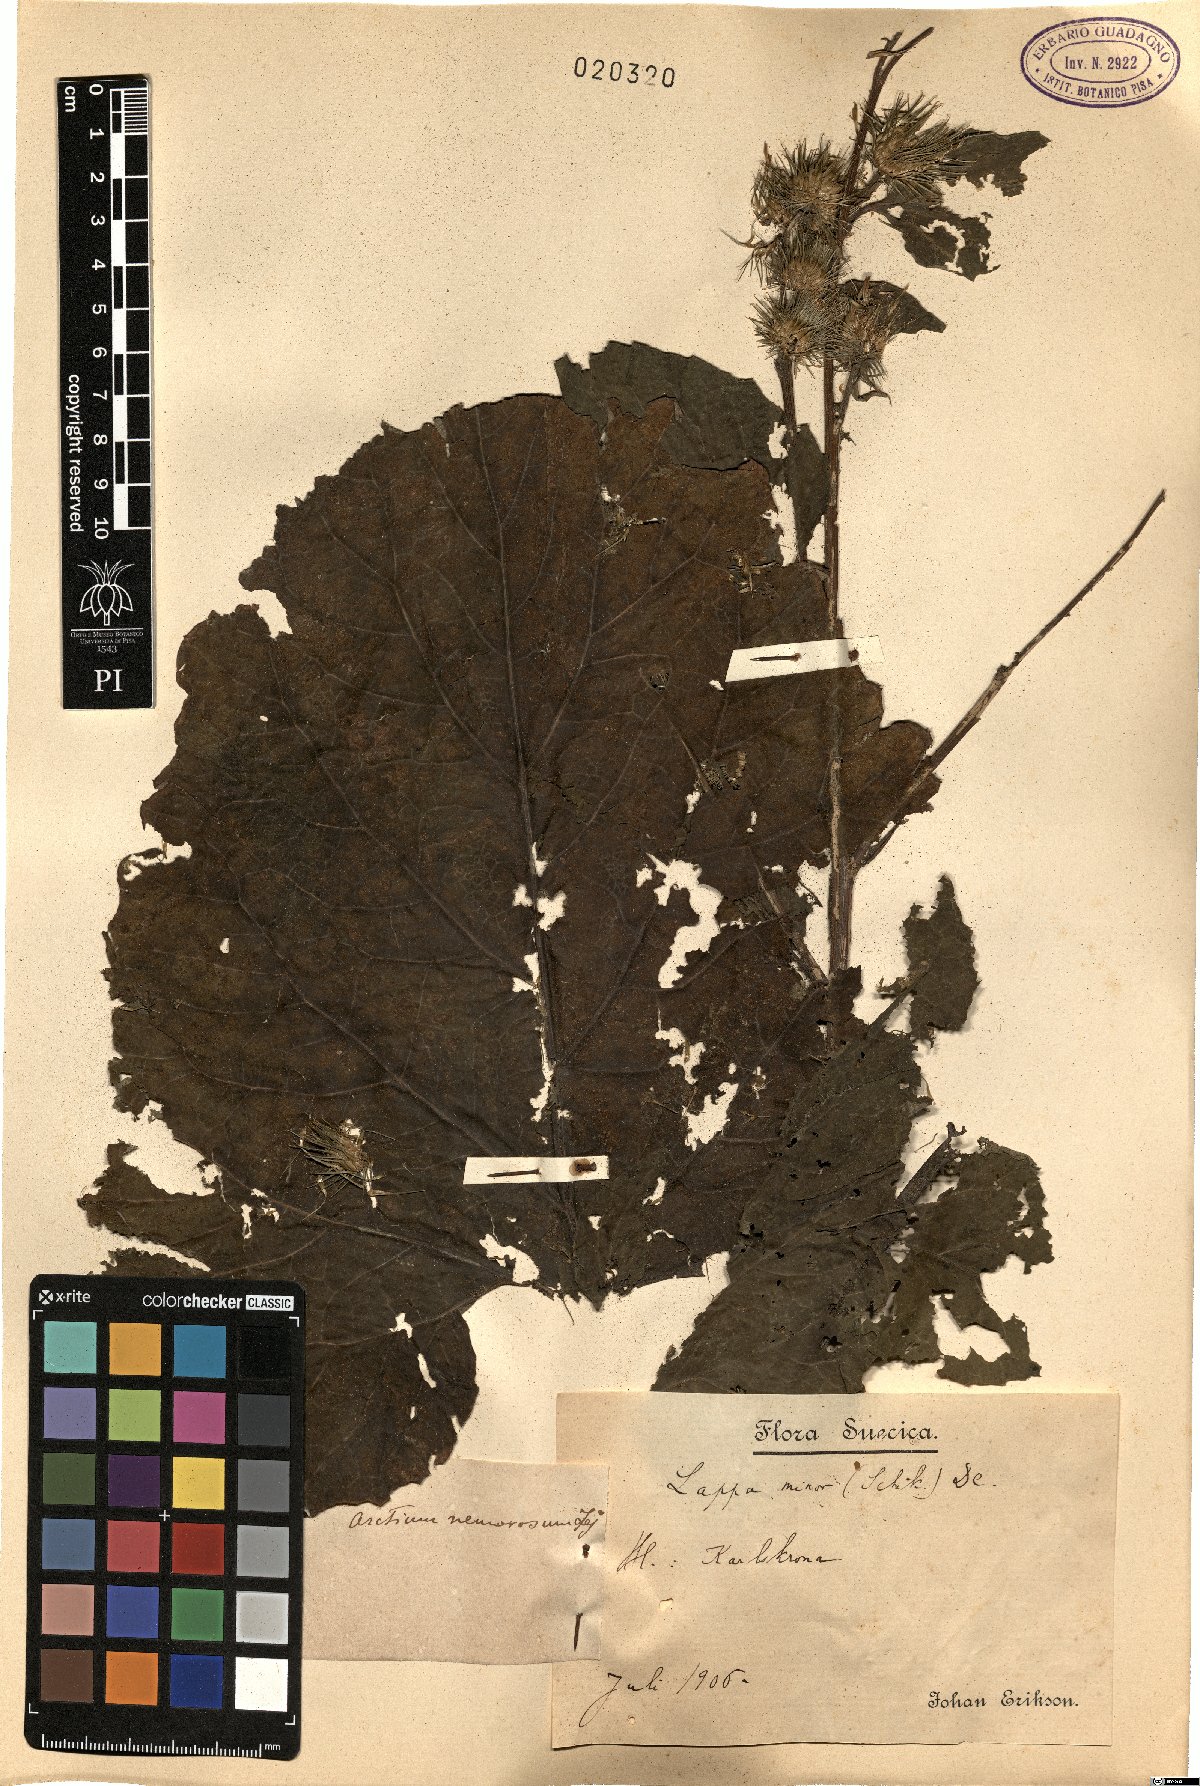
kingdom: Plantae
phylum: Tracheophyta
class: Magnoliopsida
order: Asterales
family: Asteraceae
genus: Arctium
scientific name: Arctium minus
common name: Lesser burdock
